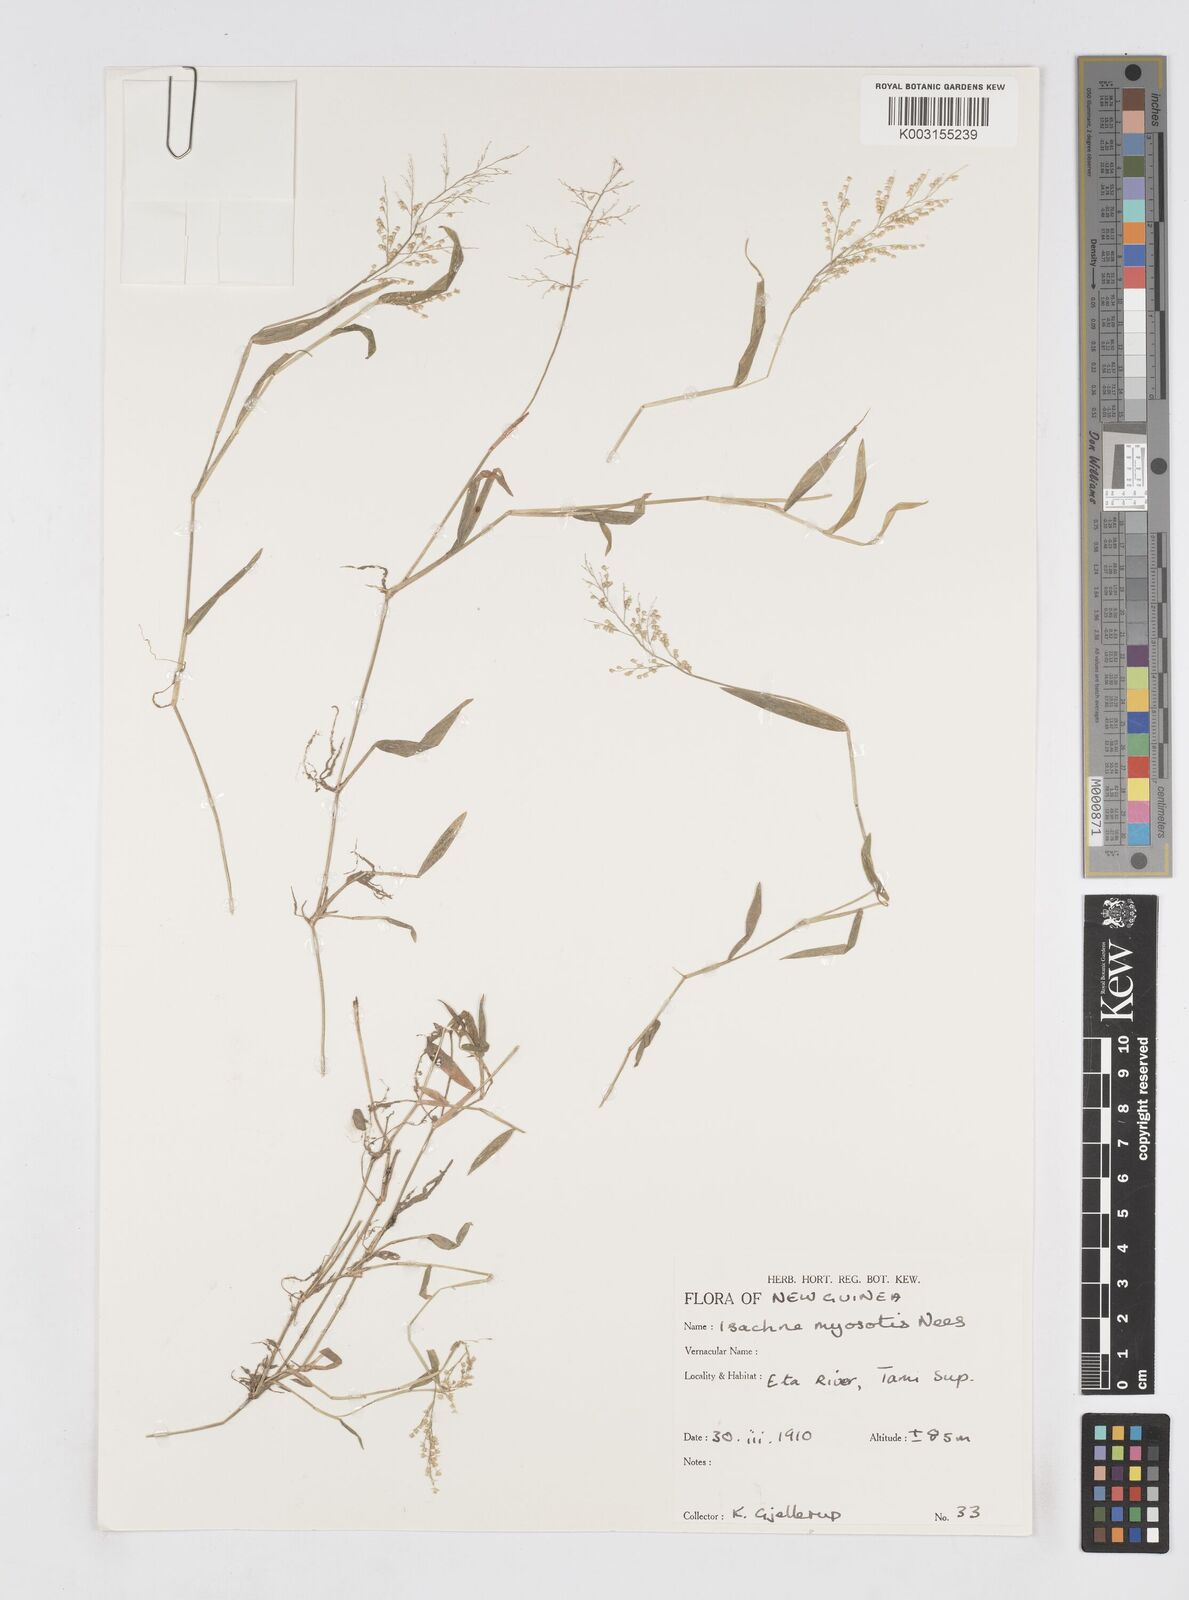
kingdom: Plantae
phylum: Tracheophyta
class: Liliopsida
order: Poales
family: Poaceae
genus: Isachne
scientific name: Isachne myosotis
